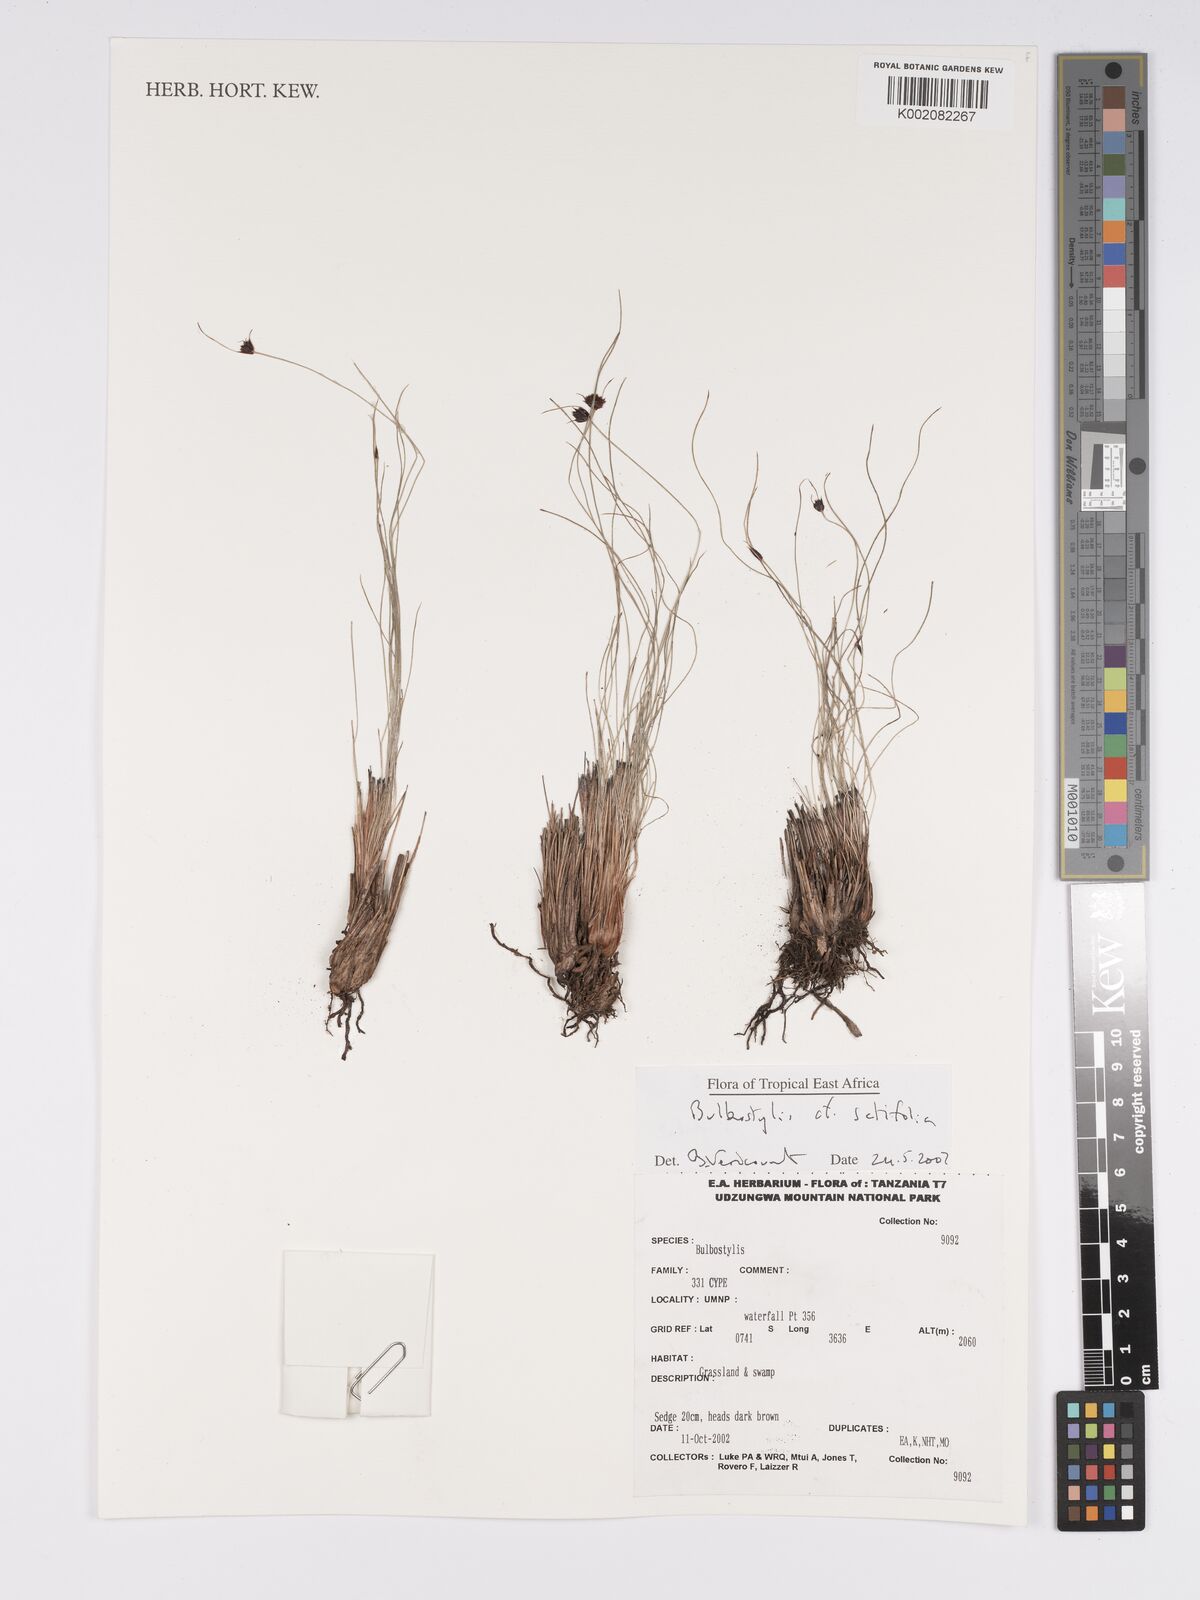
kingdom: Plantae
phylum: Tracheophyta
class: Liliopsida
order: Poales
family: Cyperaceae
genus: Bulbostylis
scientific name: Bulbostylis atrosanguinea
